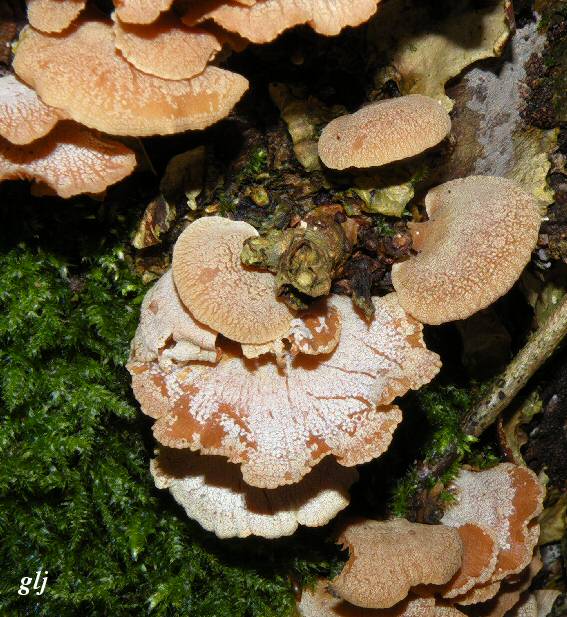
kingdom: Fungi
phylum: Basidiomycota
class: Agaricomycetes
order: Agaricales
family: Mycenaceae
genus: Panellus
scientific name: Panellus stipticus
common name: kliddet epaulethat
